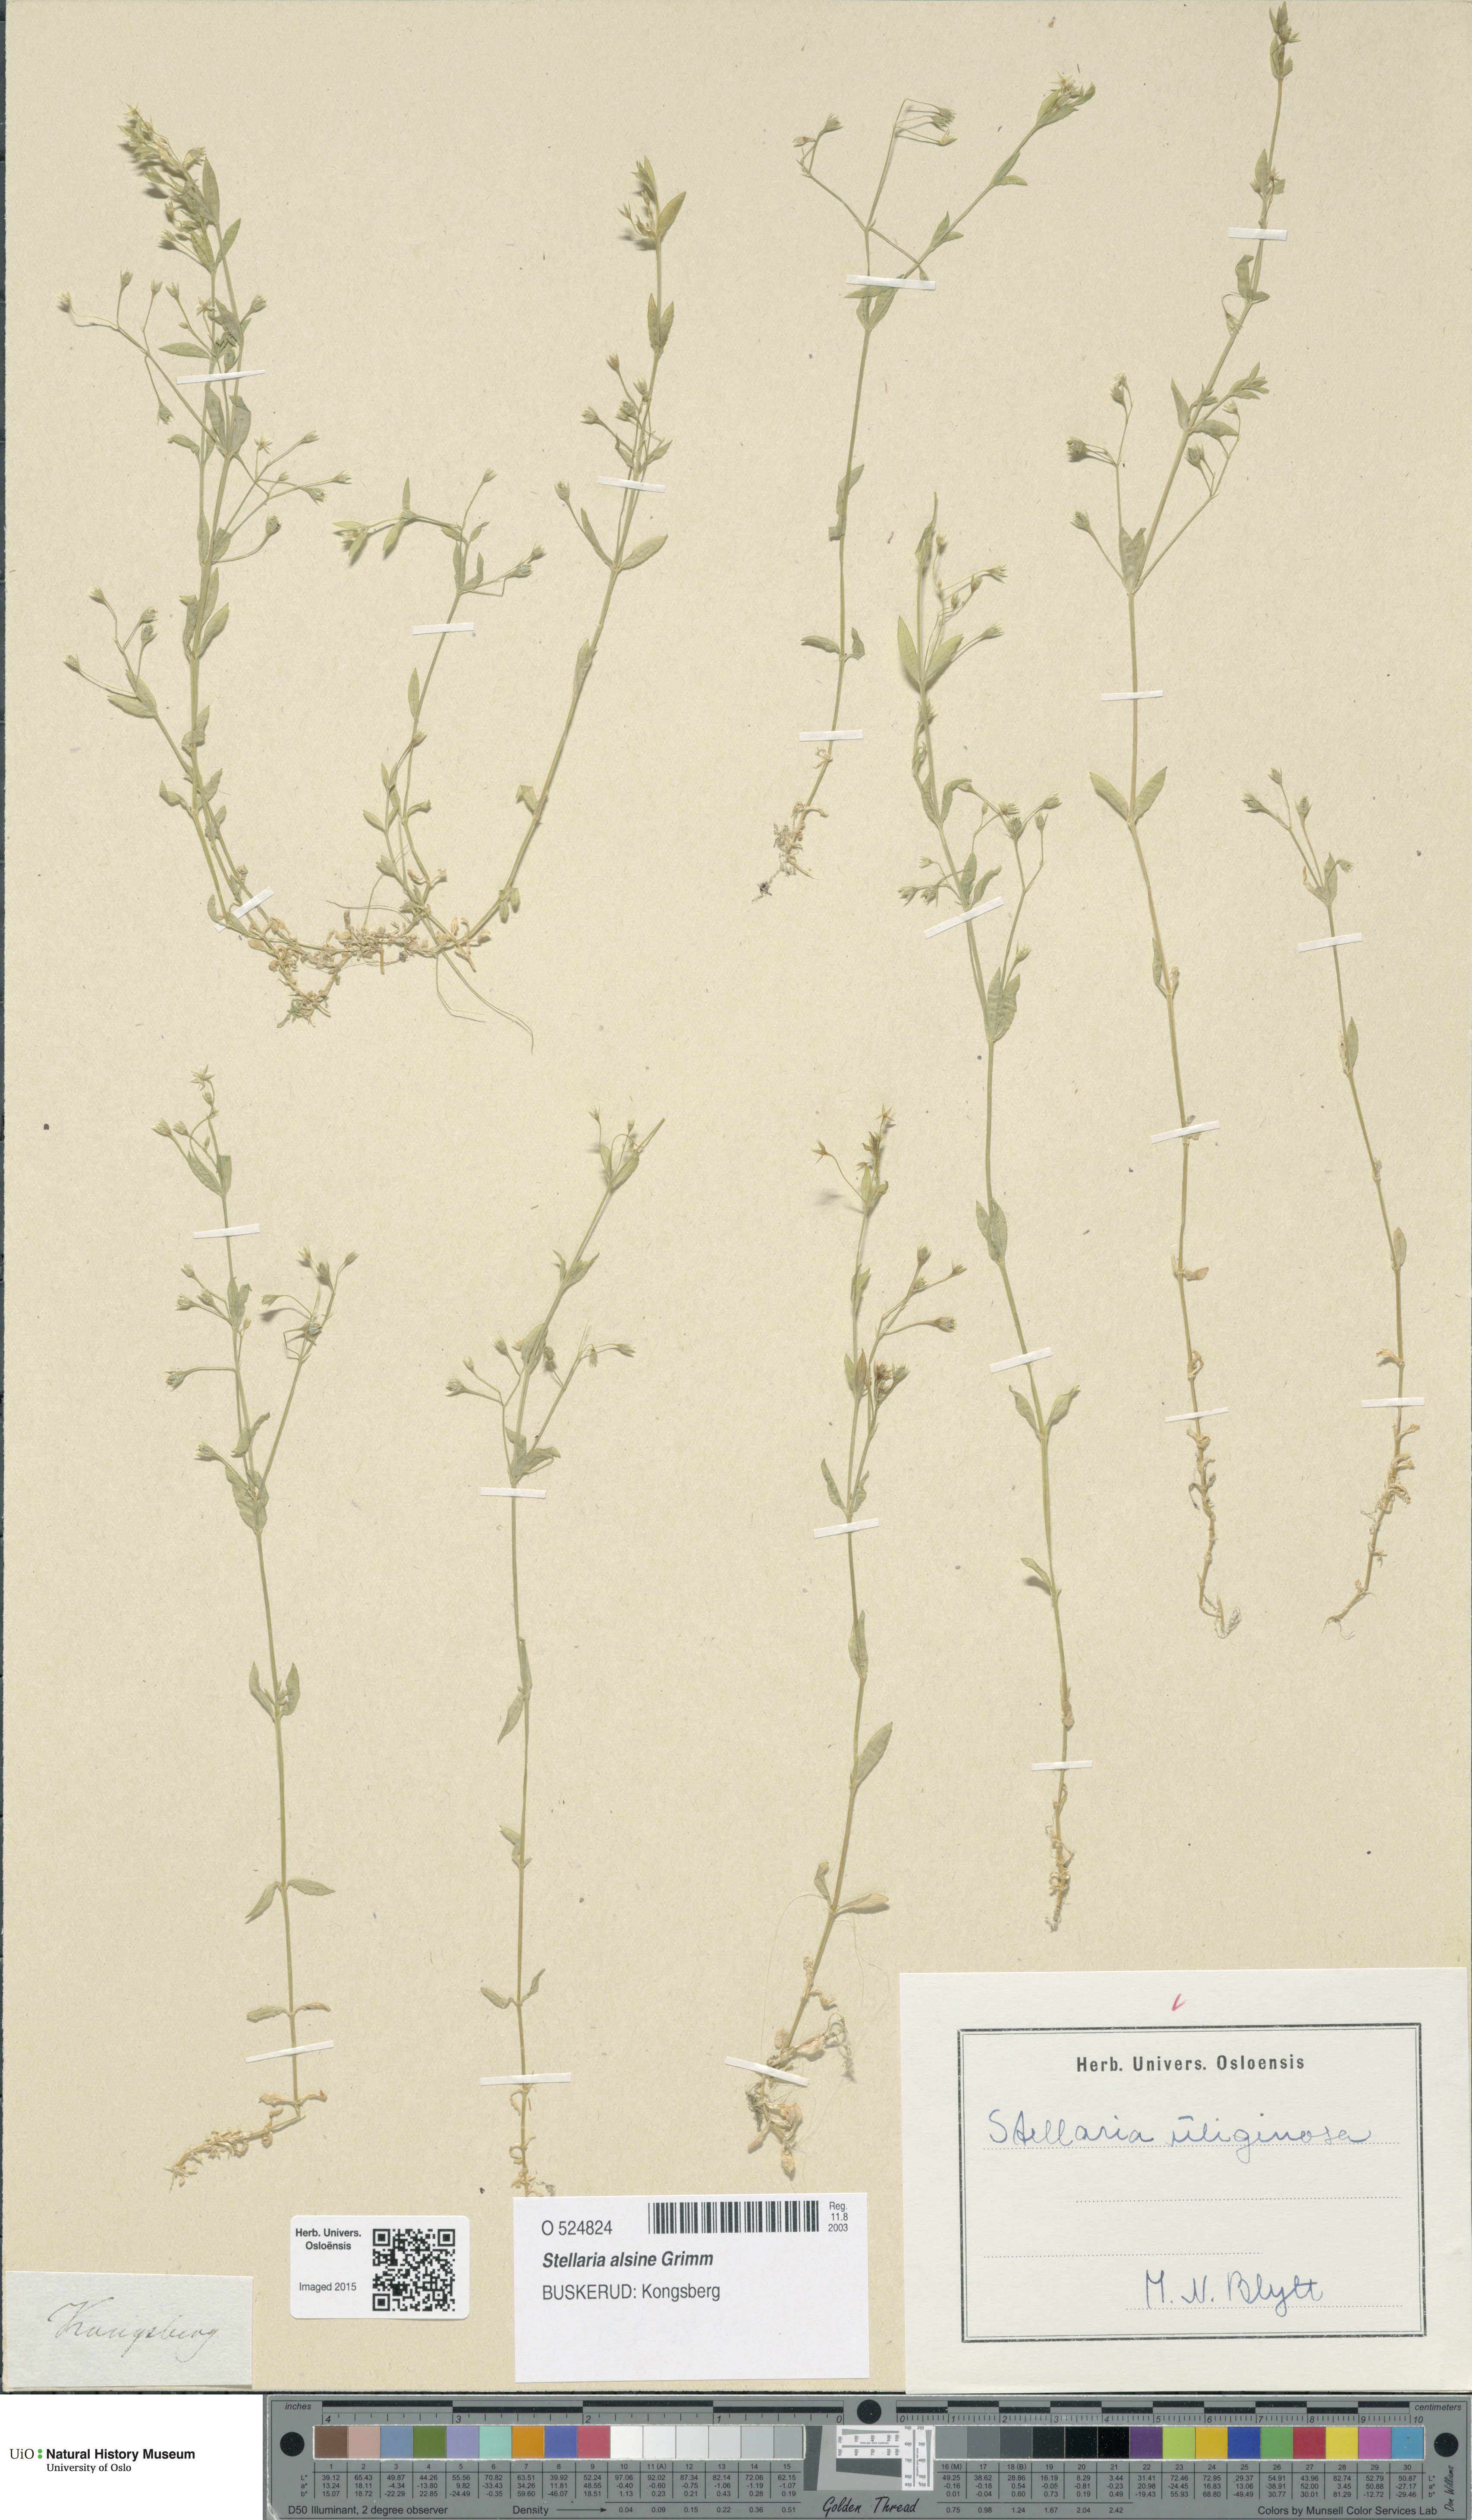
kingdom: Plantae
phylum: Tracheophyta
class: Magnoliopsida
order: Caryophyllales
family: Caryophyllaceae
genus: Stellaria
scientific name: Stellaria alsine
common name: Bog stitchwort
